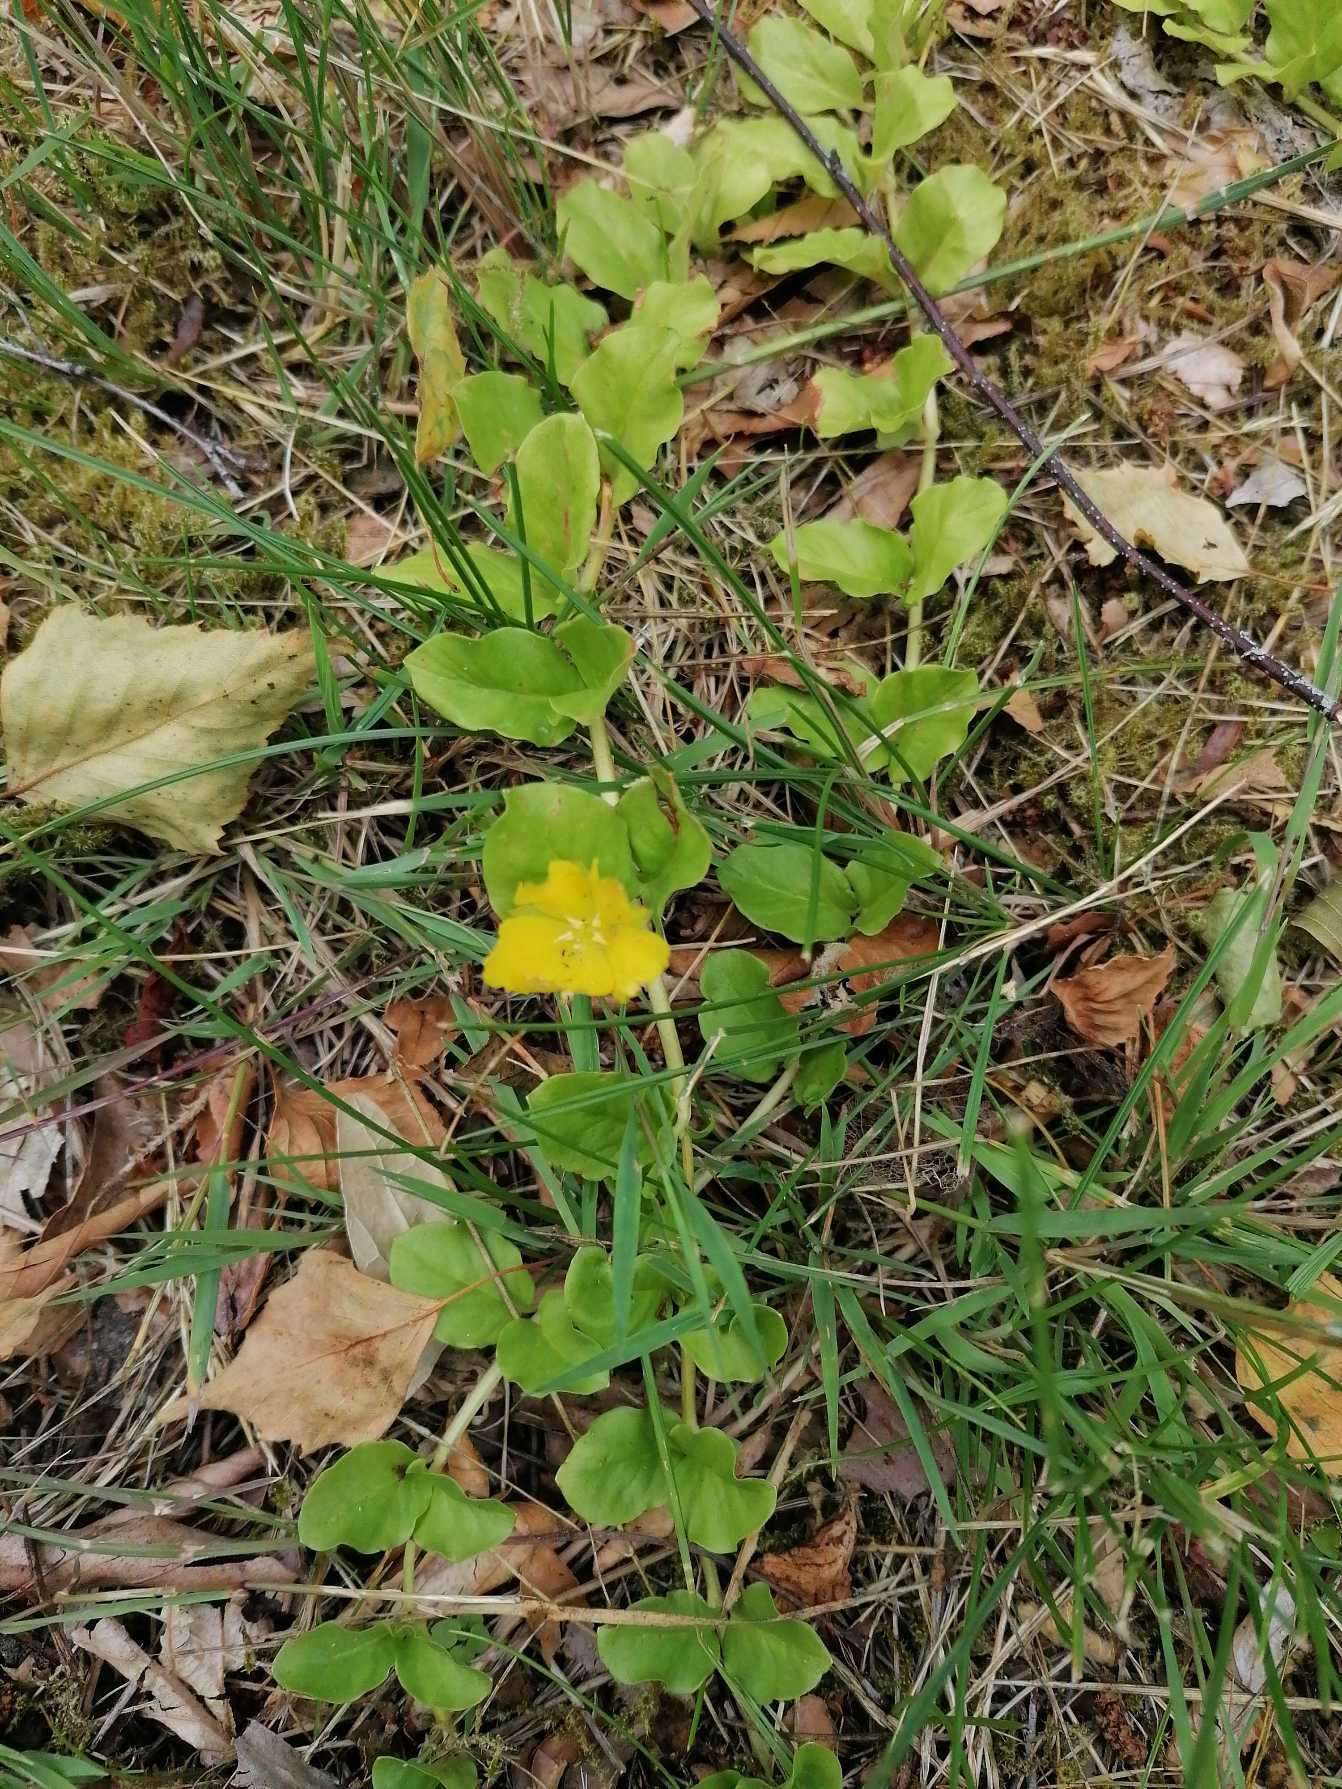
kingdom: Plantae
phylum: Tracheophyta
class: Magnoliopsida
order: Ericales
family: Primulaceae
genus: Lysimachia
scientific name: Lysimachia nummularia
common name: Pengebladet fredløs
